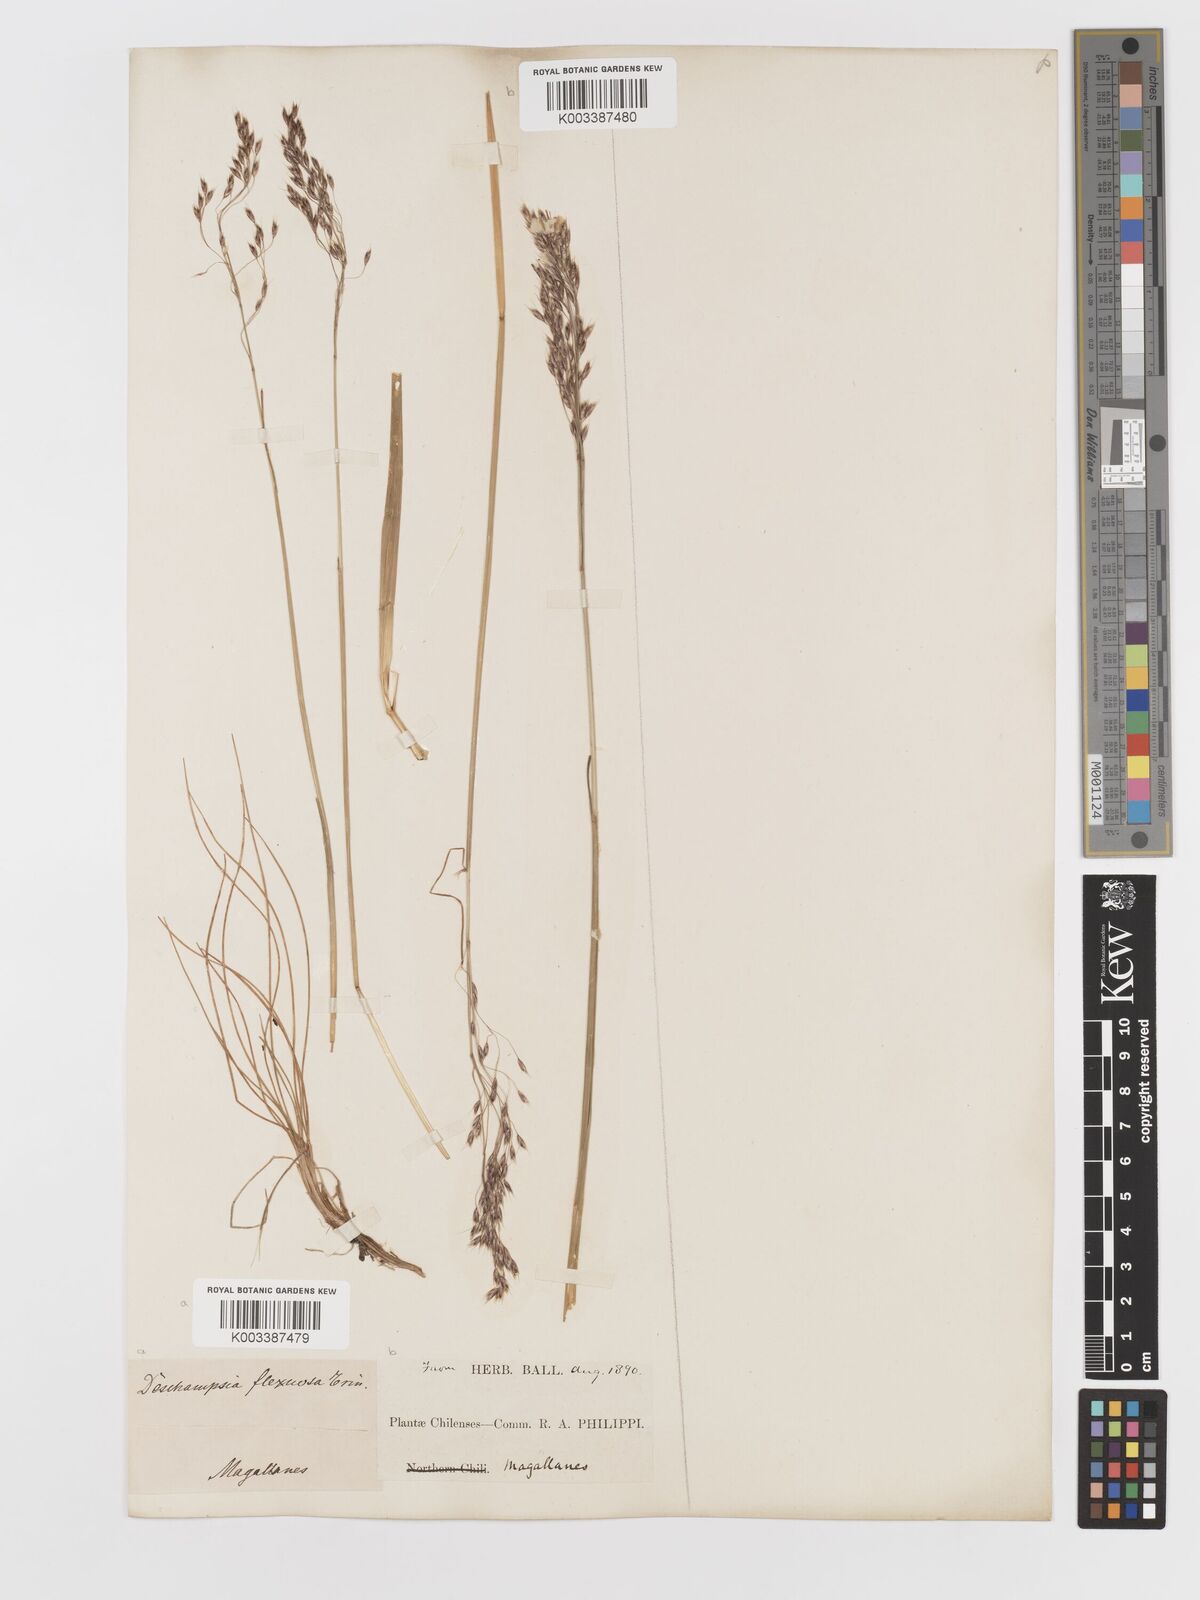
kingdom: Plantae
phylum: Tracheophyta
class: Liliopsida
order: Poales
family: Poaceae
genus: Avenella
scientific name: Avenella flexuosa
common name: Wavy hairgrass
